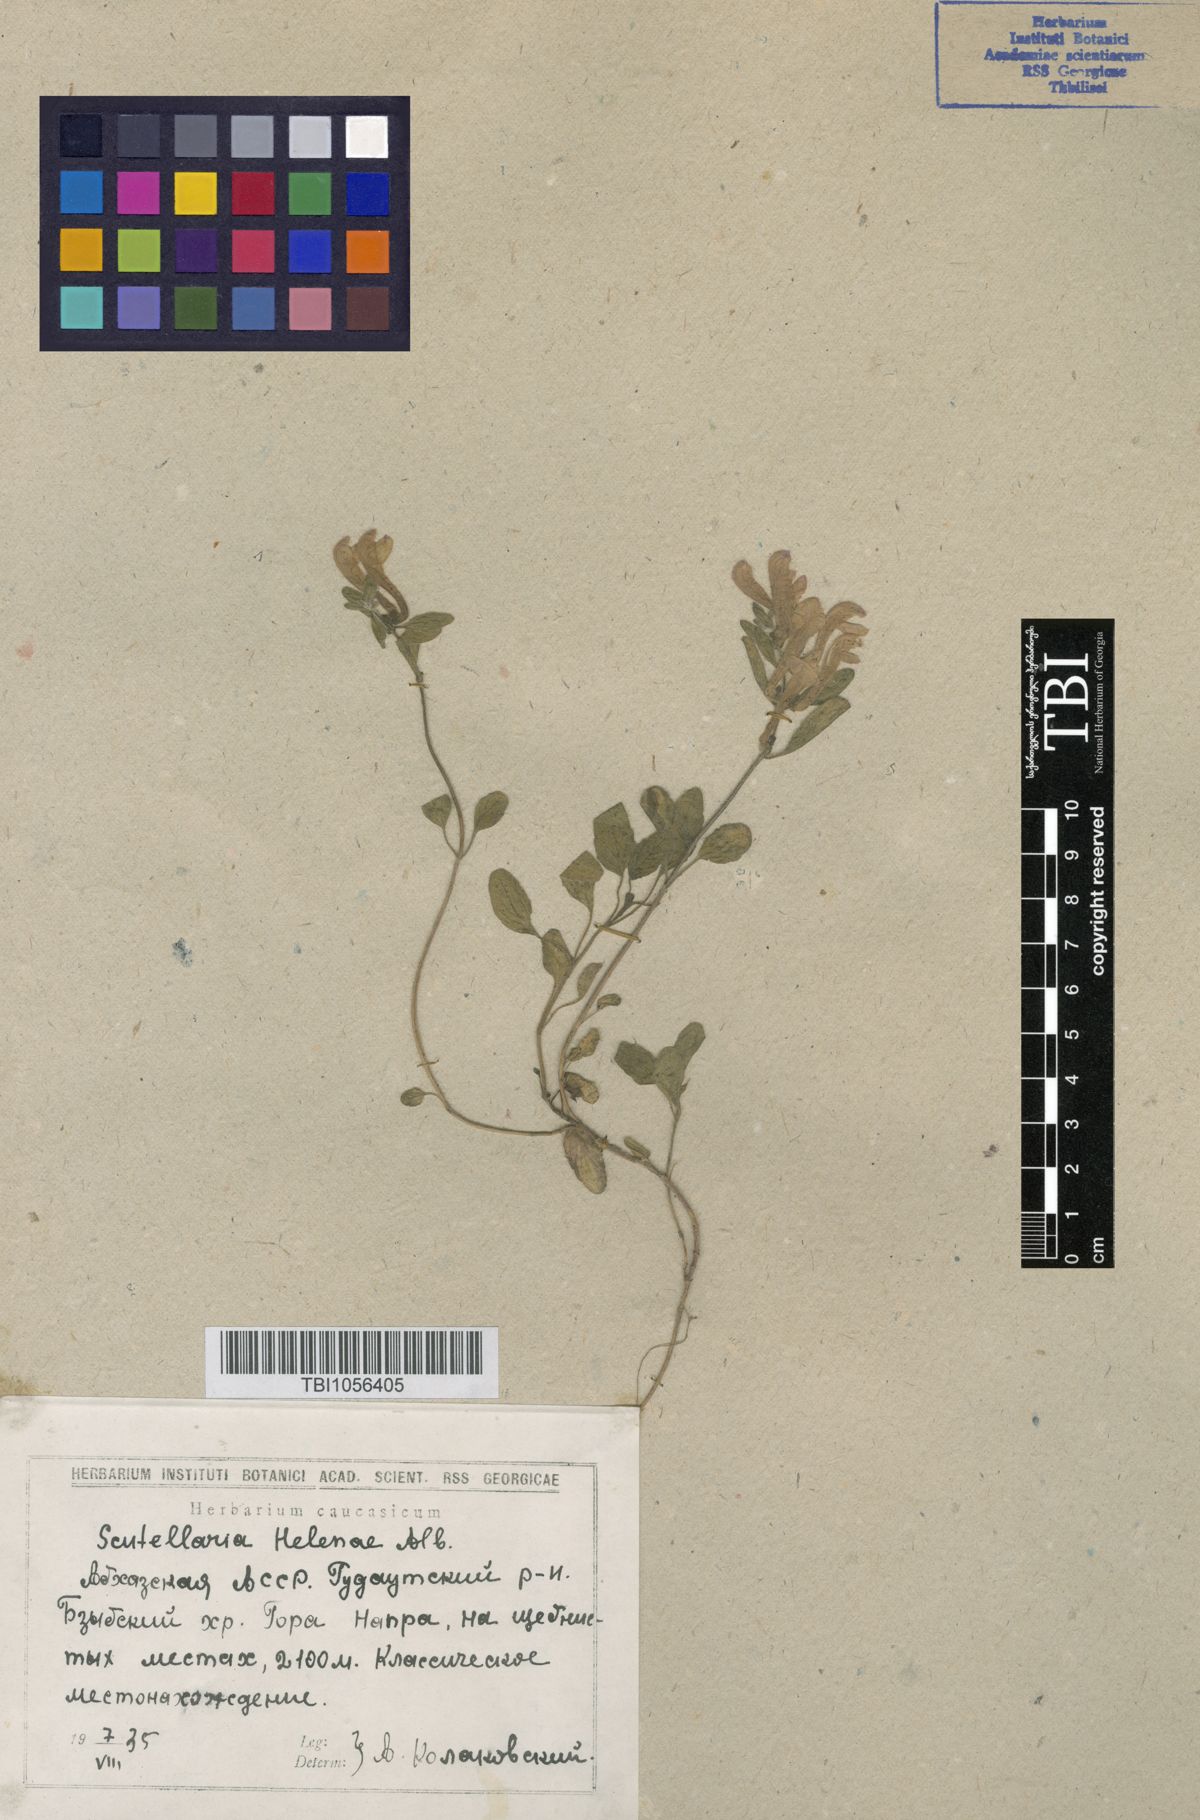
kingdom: Plantae
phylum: Tracheophyta
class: Magnoliopsida
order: Lamiales
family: Lamiaceae
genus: Scutellaria
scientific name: Scutellaria helenae
